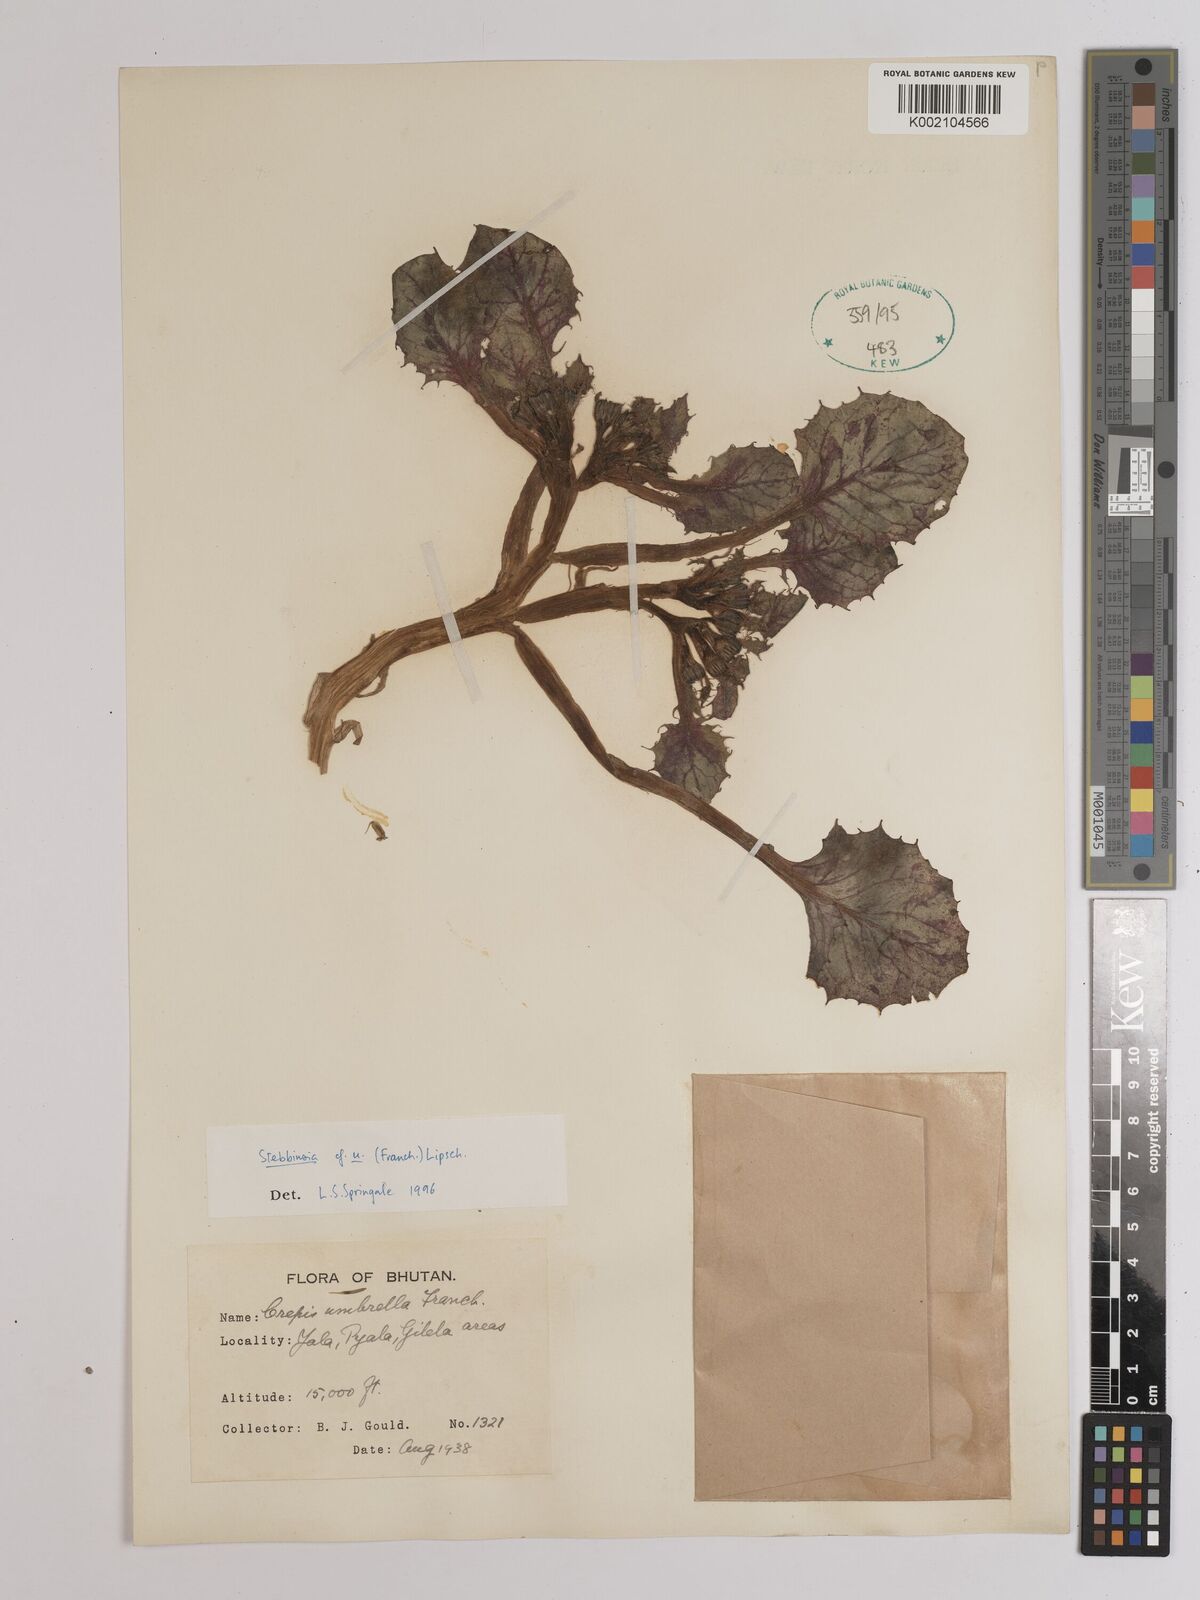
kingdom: Plantae
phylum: Tracheophyta
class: Magnoliopsida
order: Asterales
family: Asteraceae
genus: Soroseris
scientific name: Soroseris umbrella
